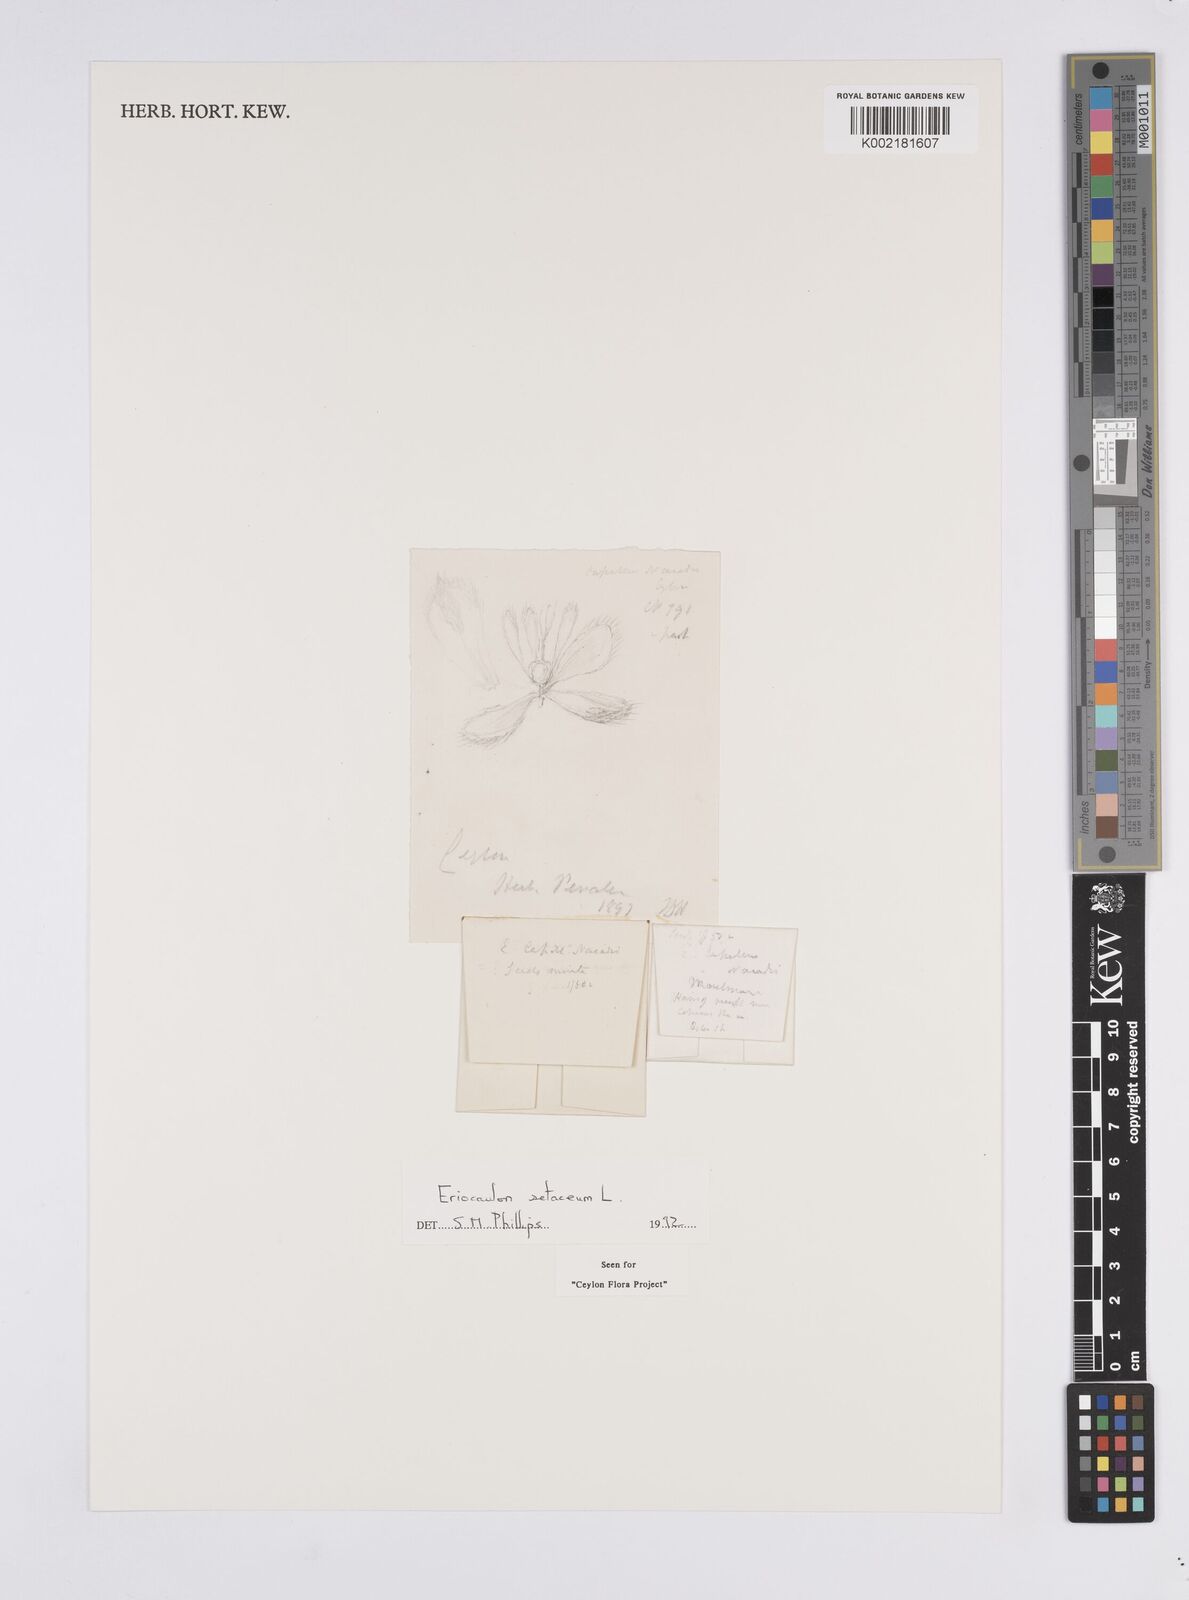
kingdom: Plantae
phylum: Tracheophyta
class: Liliopsida
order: Poales
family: Eriocaulaceae
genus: Eriocaulon
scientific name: Eriocaulon setaceum
